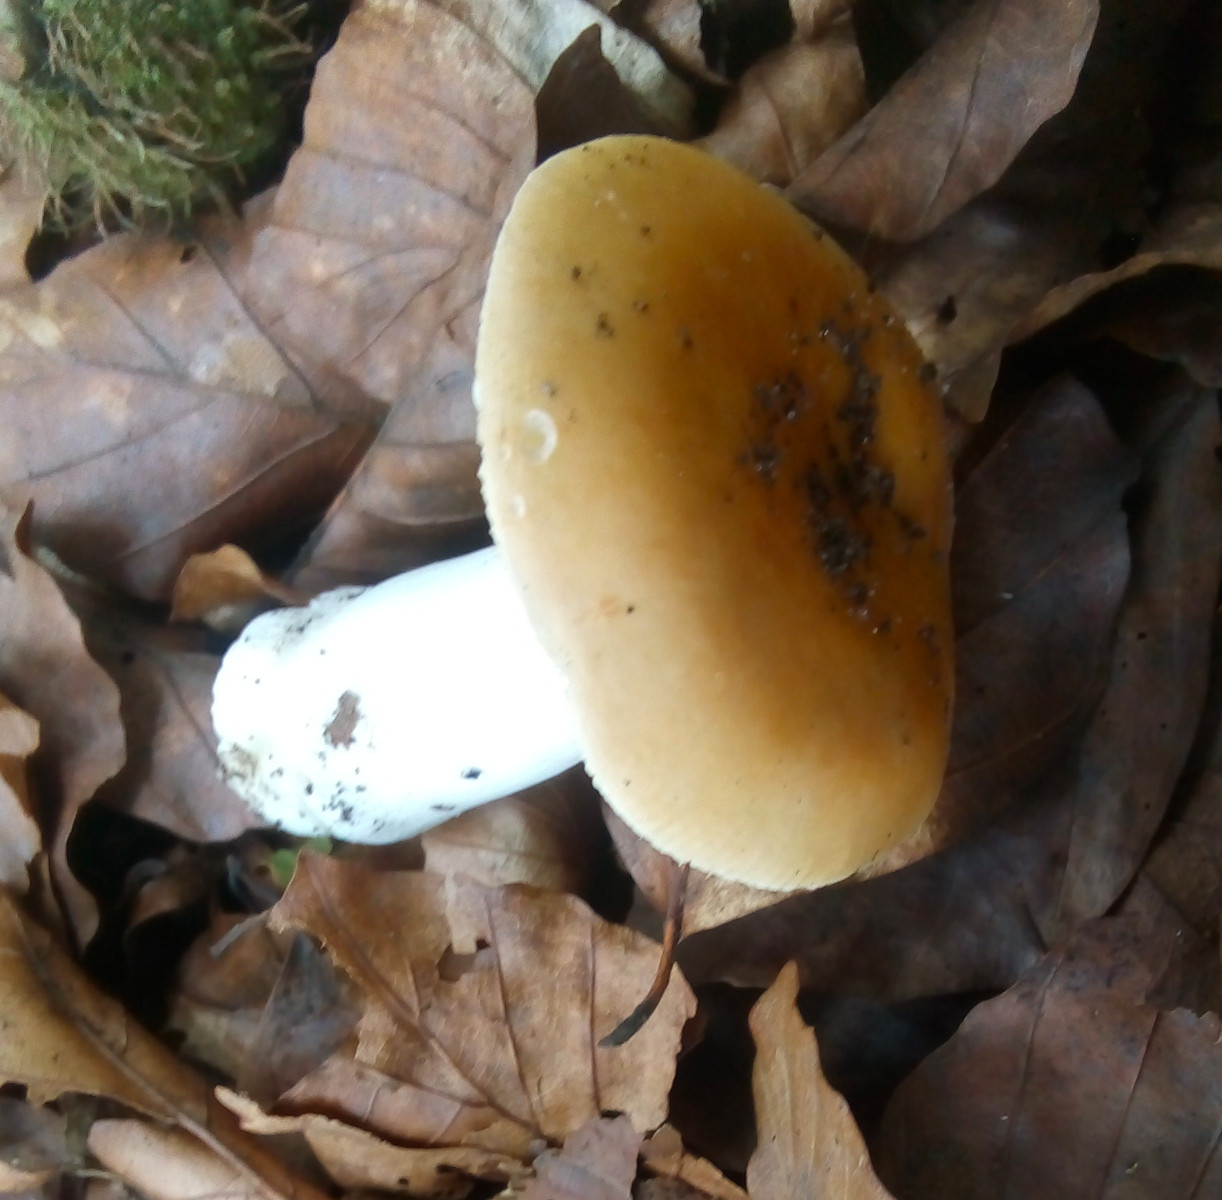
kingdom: Fungi
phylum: Basidiomycota
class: Agaricomycetes
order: Russulales
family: Russulaceae
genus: Russula
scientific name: Russula risigallina
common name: abrikos-skørhat
